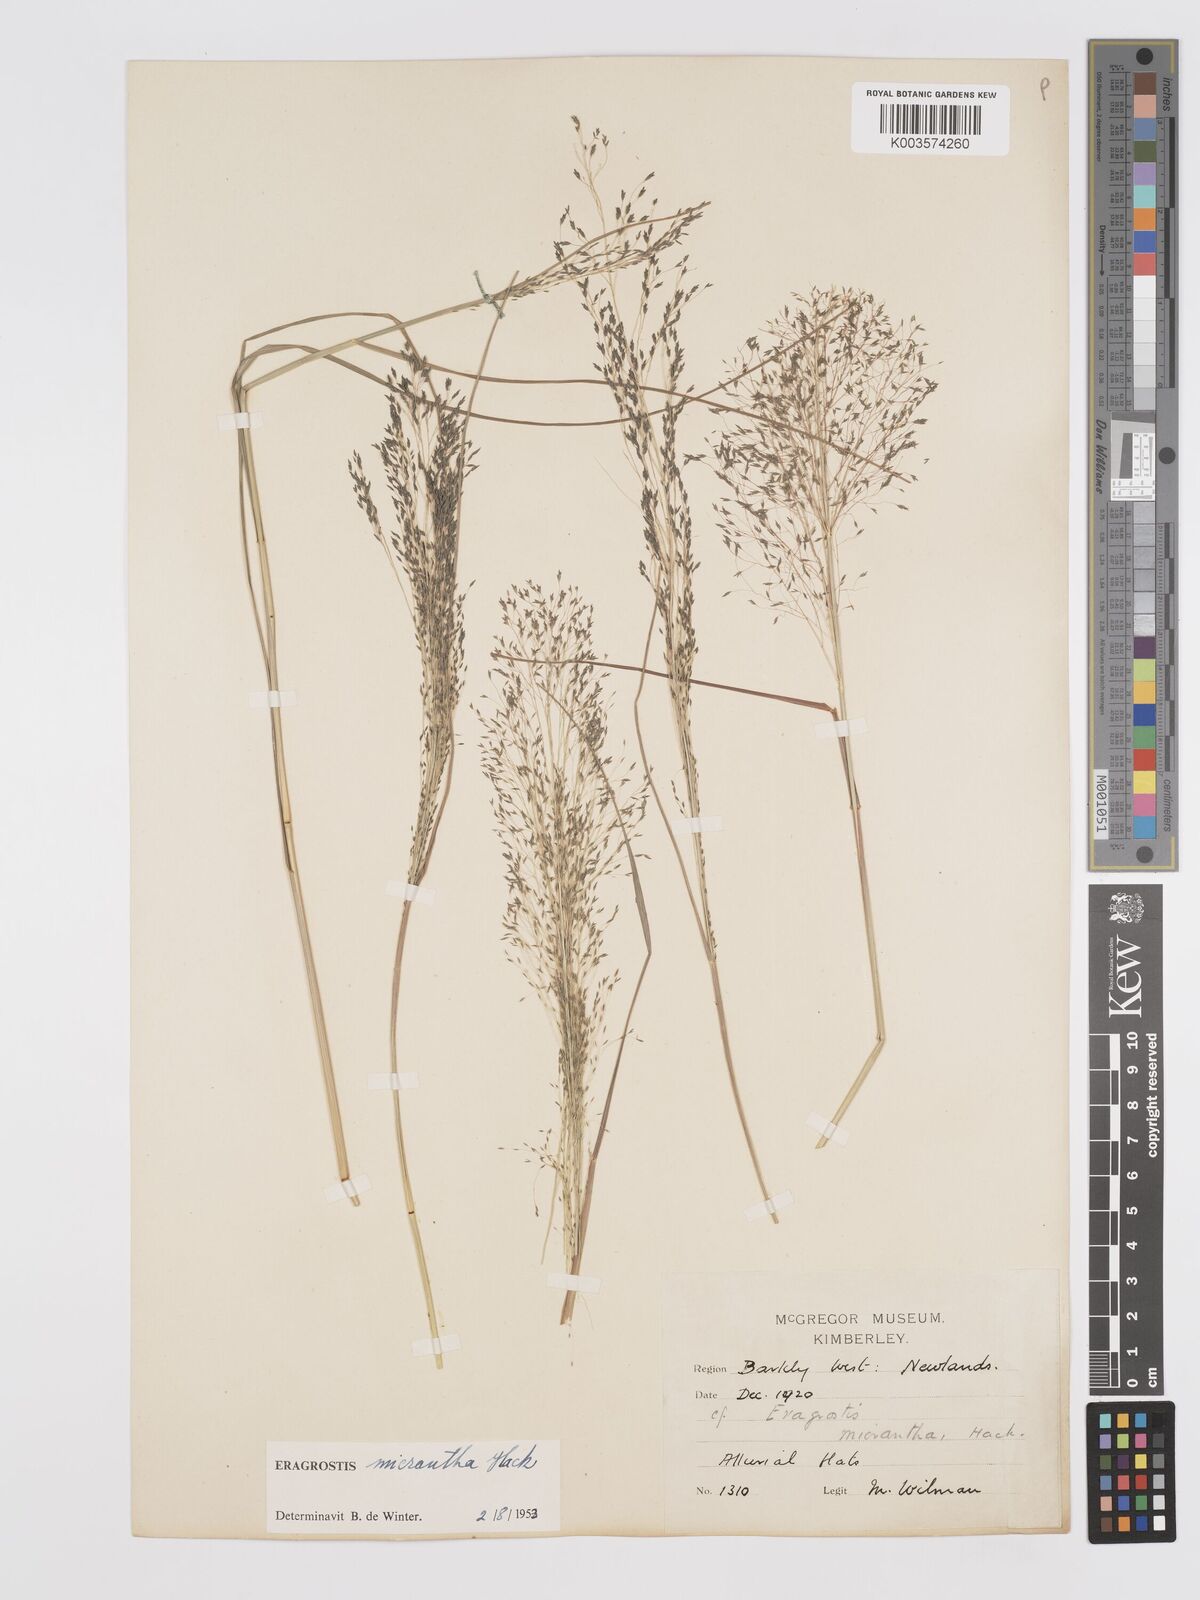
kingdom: Plantae
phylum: Tracheophyta
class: Liliopsida
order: Poales
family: Poaceae
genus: Eragrostis
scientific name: Eragrostis micrantha
